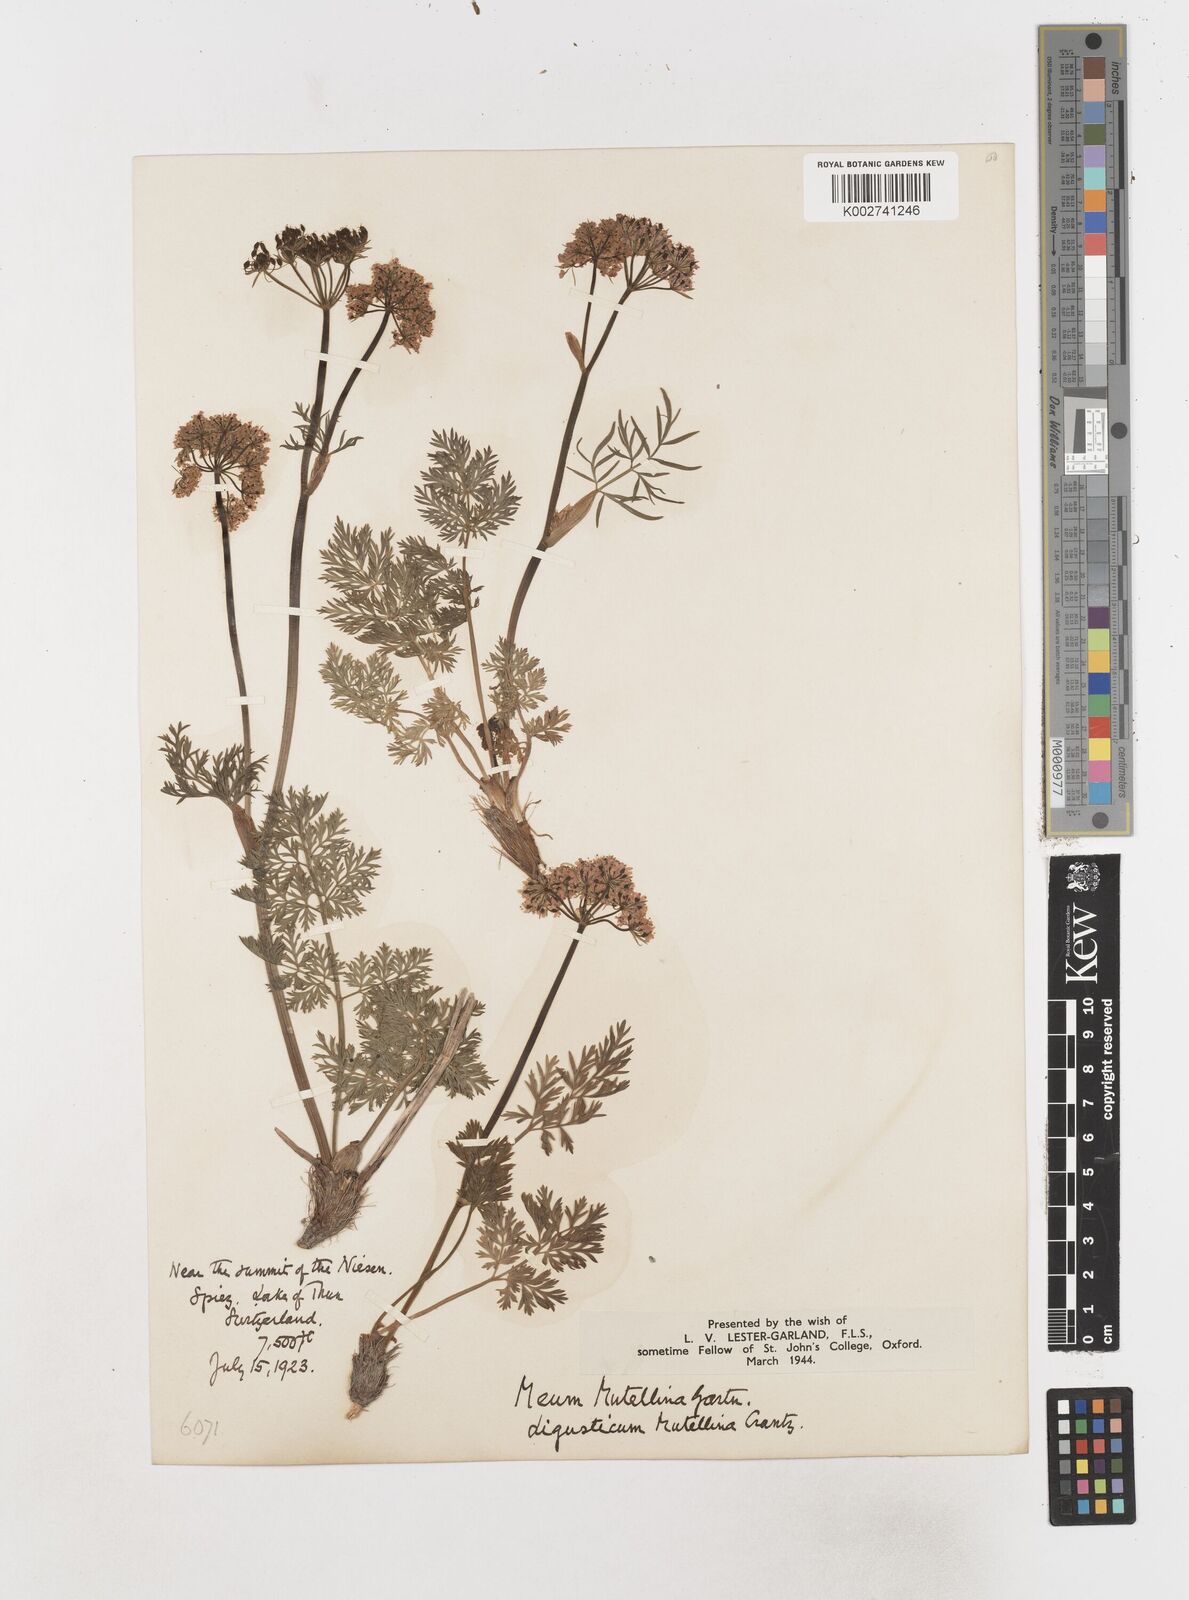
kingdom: Plantae
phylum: Tracheophyta
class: Magnoliopsida
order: Apiales
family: Apiaceae
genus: Mutellina
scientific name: Mutellina adonidifolia
